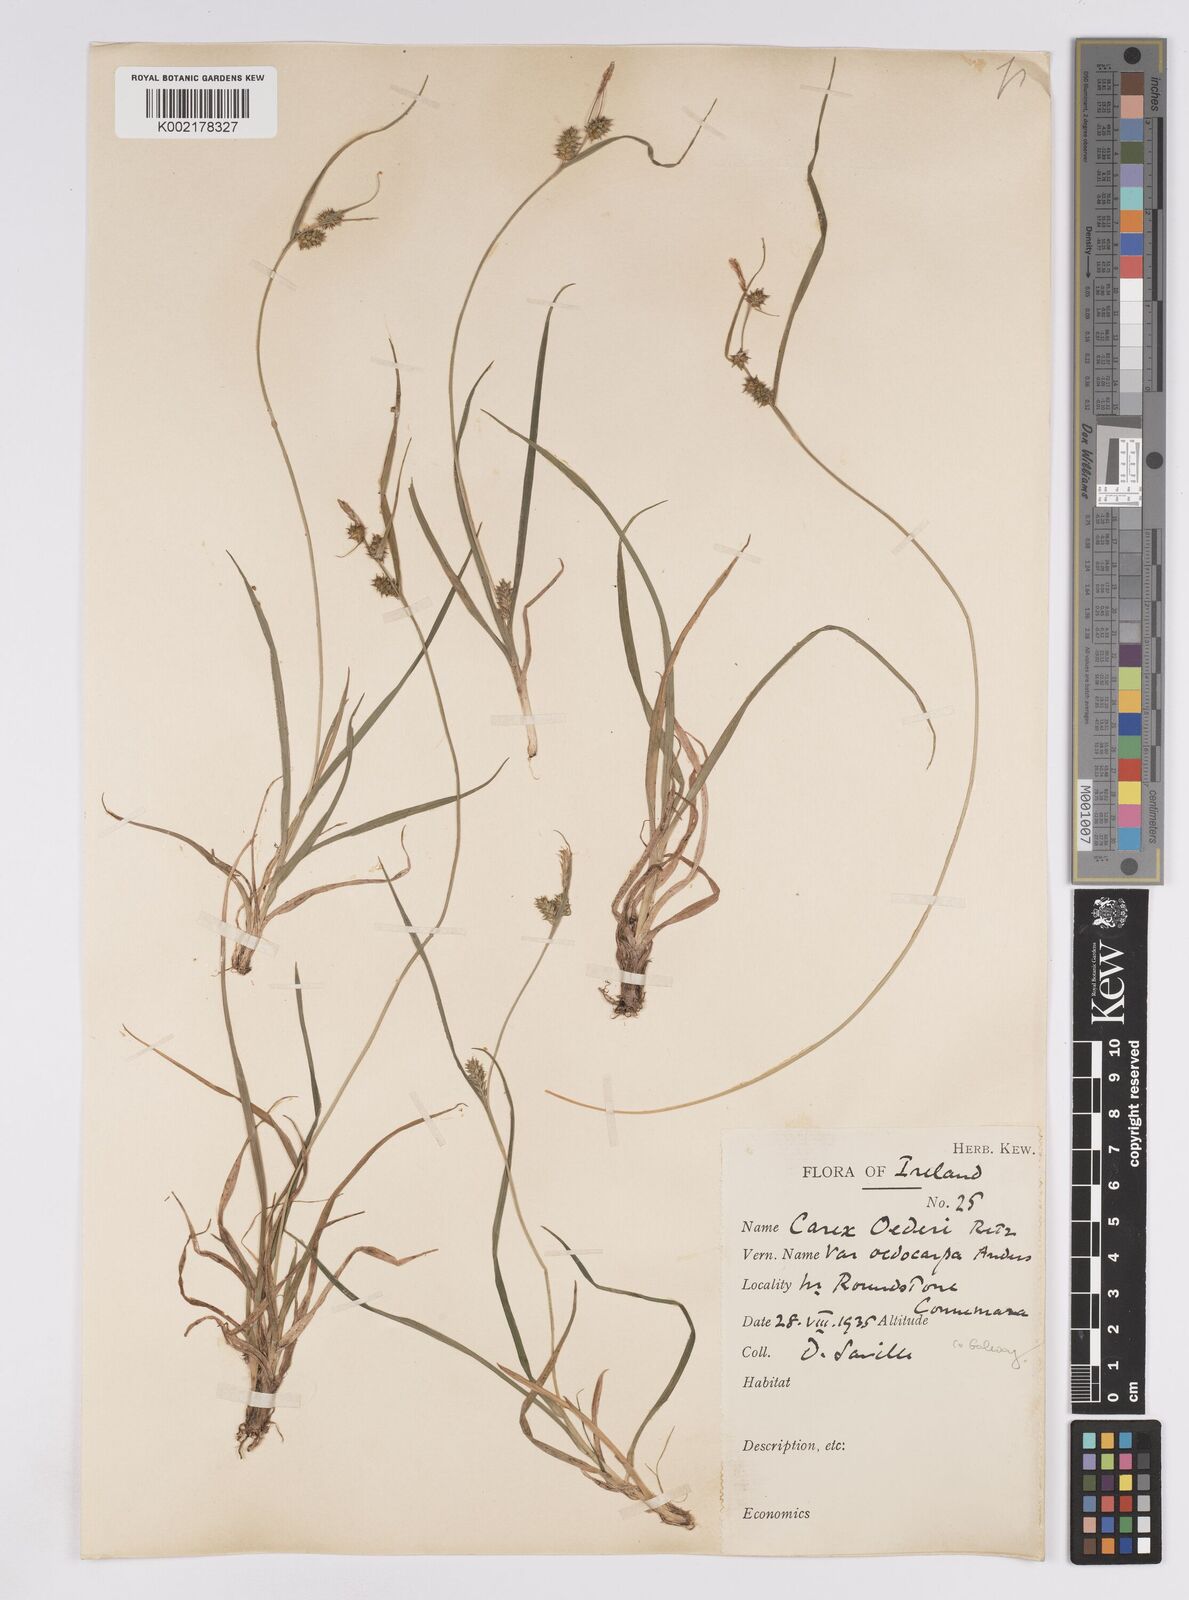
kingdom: Plantae
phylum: Tracheophyta
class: Liliopsida
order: Poales
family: Cyperaceae
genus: Carex
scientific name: Carex demissa
